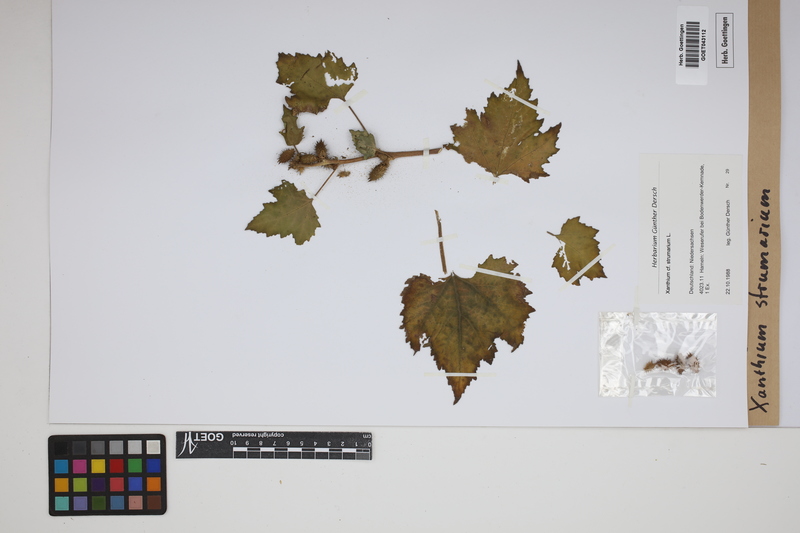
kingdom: Plantae
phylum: Tracheophyta
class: Magnoliopsida
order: Asterales
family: Asteraceae
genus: Xanthium
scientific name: Xanthium strumarium
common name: Rough cocklebur
